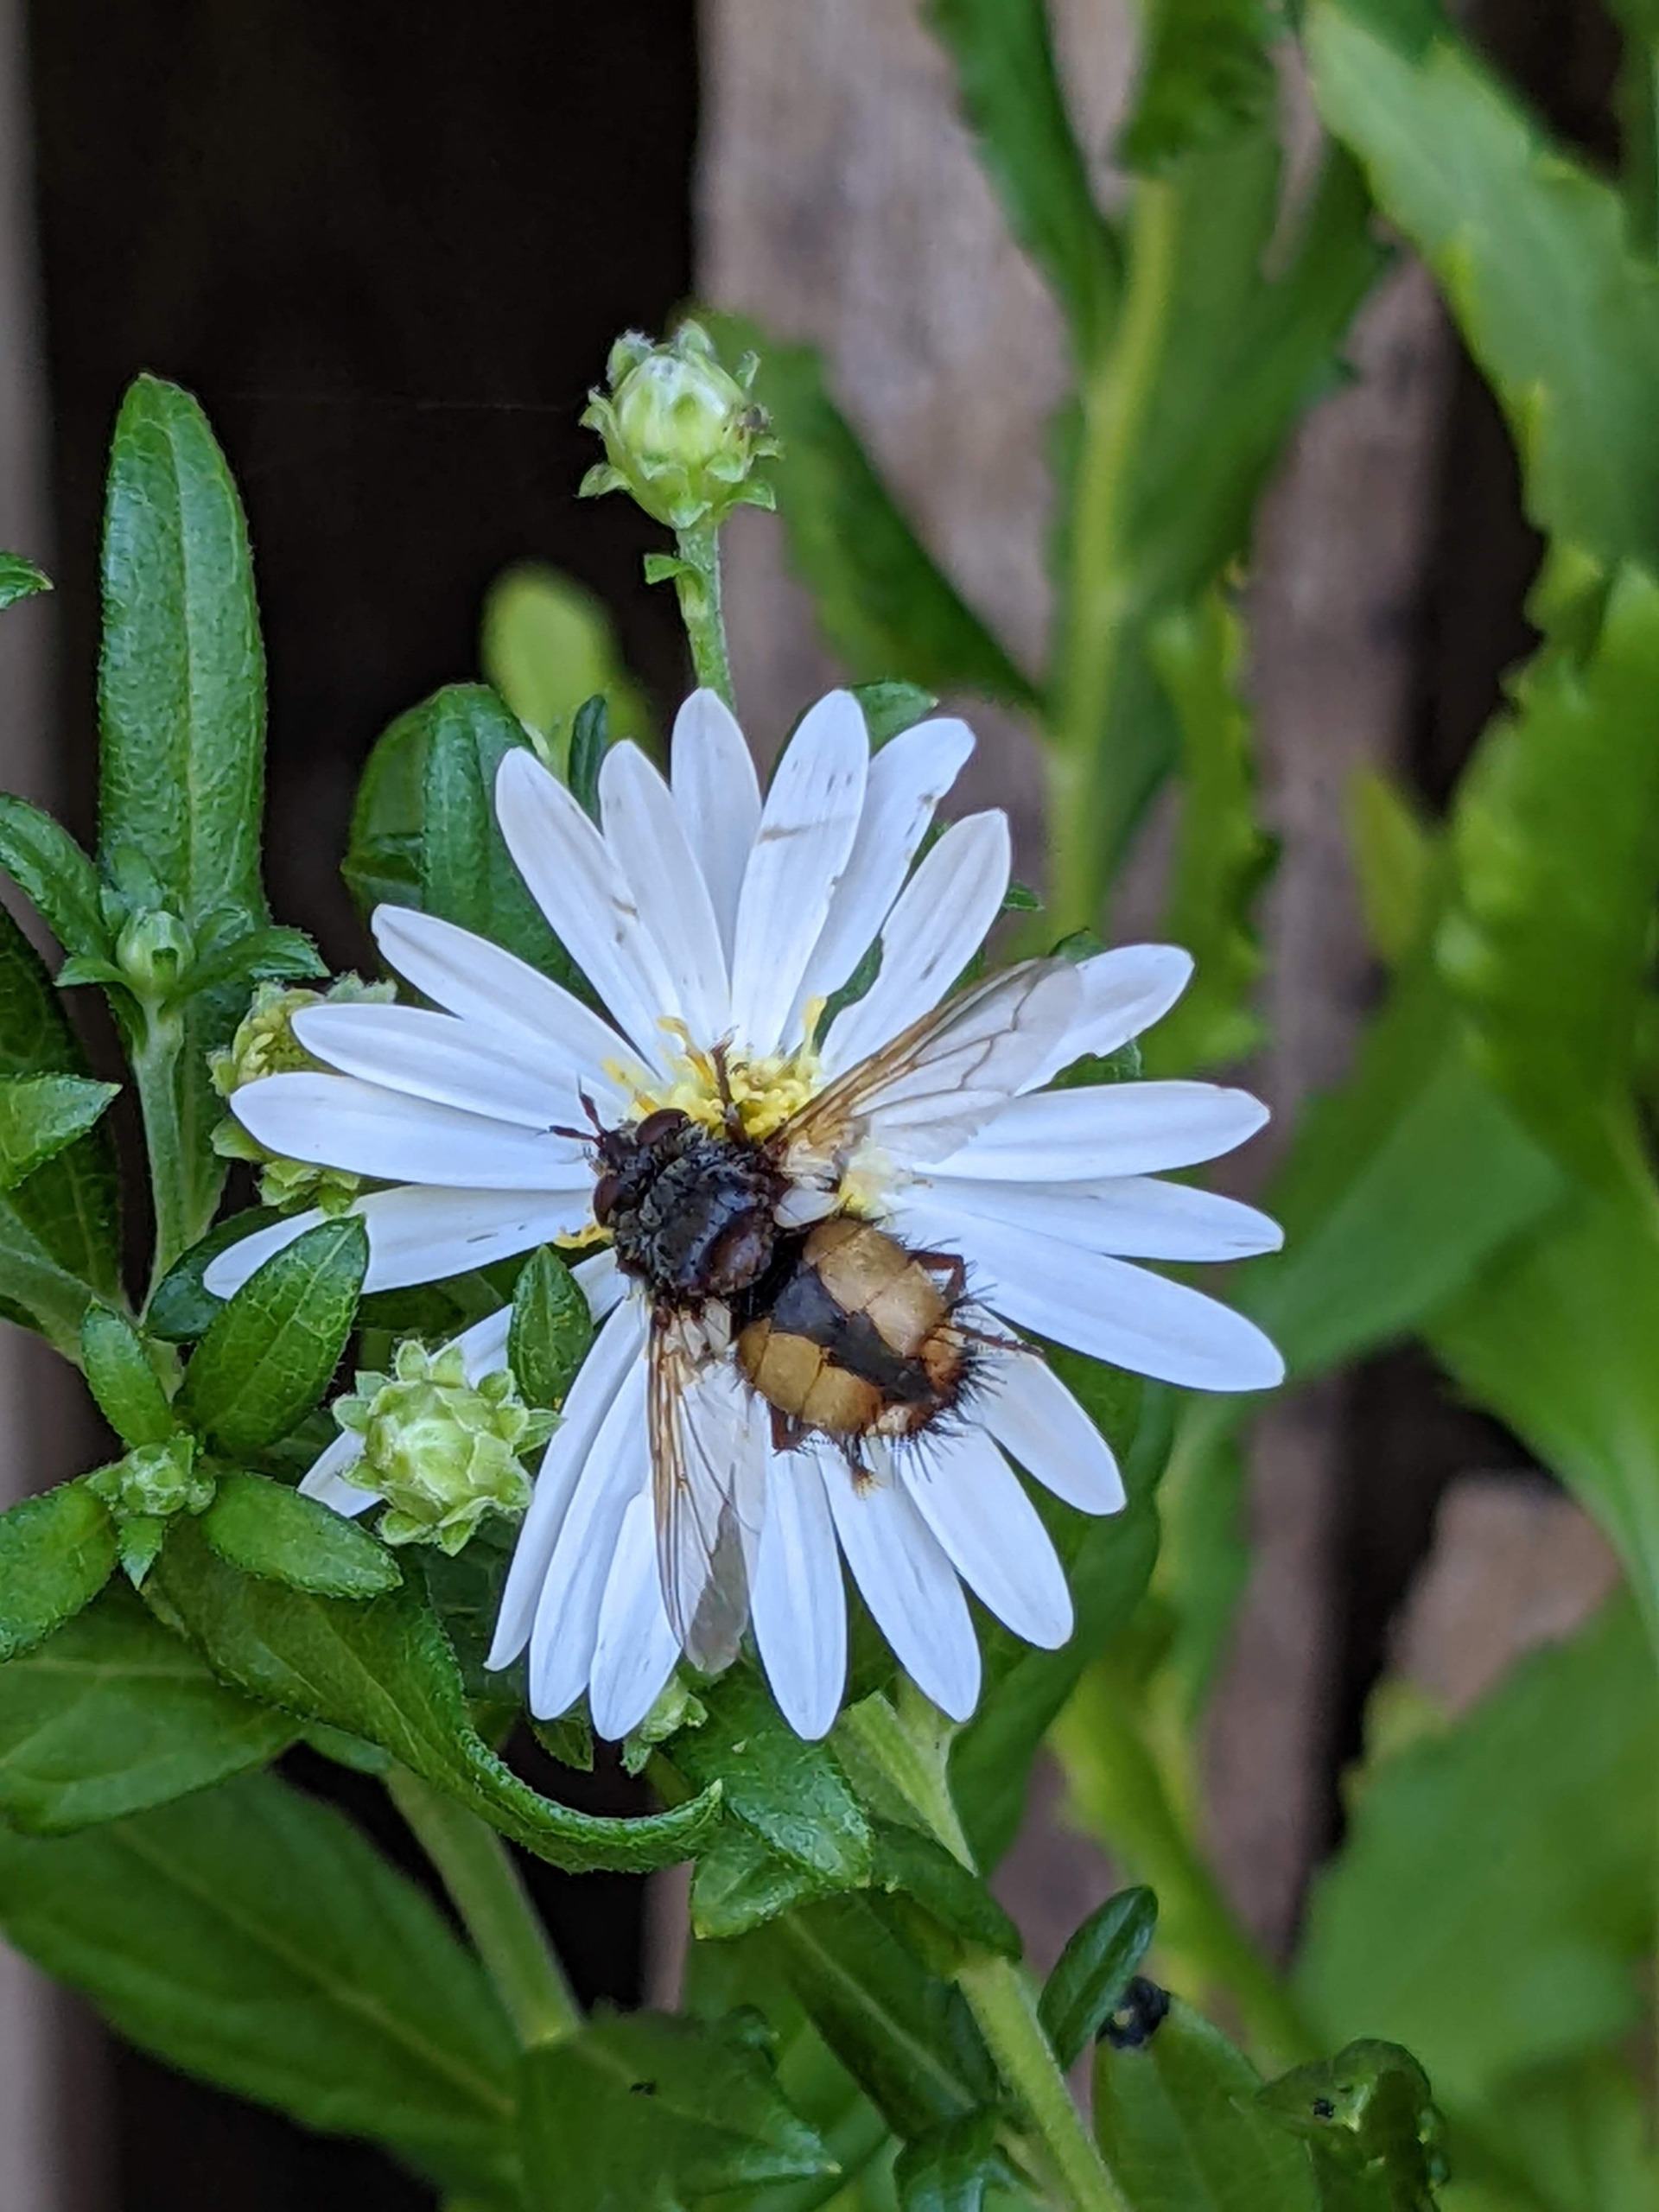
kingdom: Animalia
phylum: Arthropoda
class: Insecta
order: Diptera
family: Tachinidae
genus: Tachina
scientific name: Tachina fera
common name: Mellemfluen oskar
